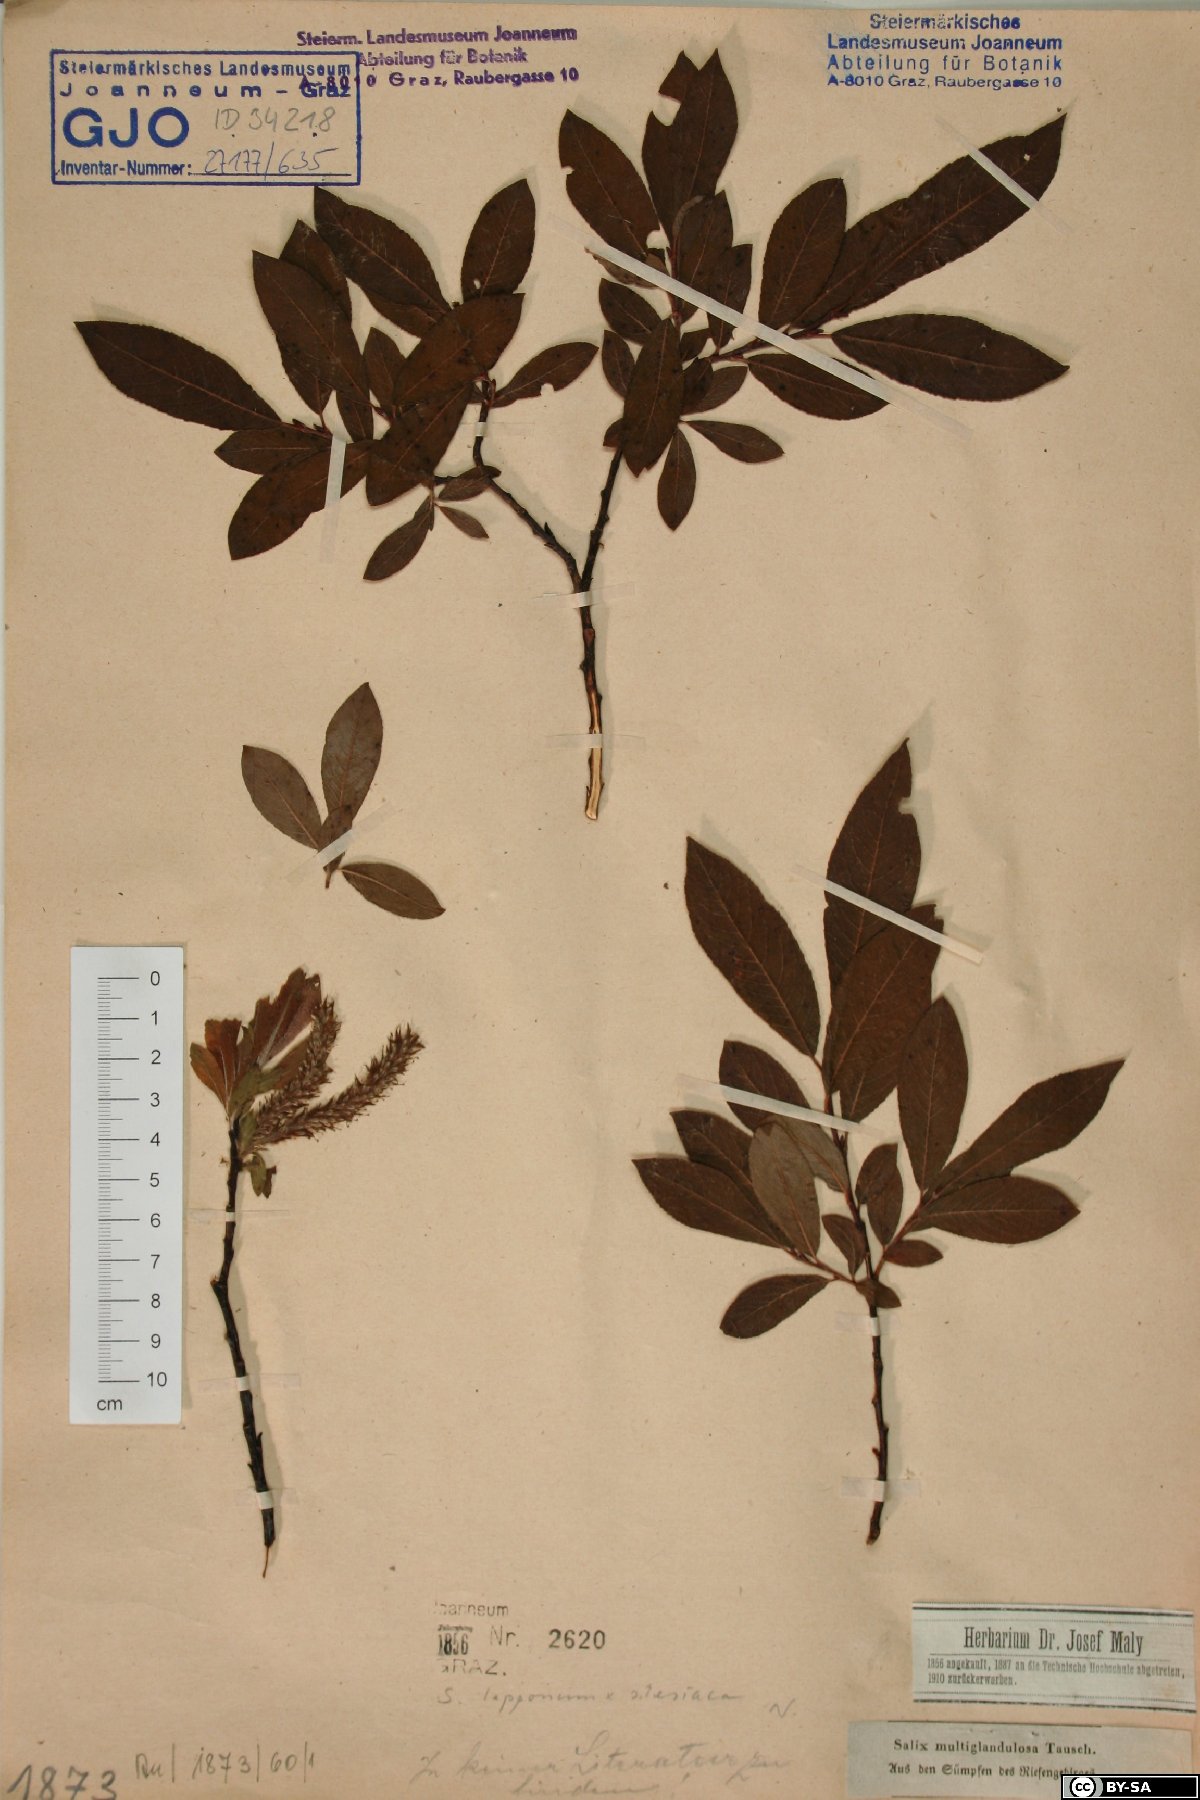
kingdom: Plantae
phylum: Tracheophyta
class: Magnoliopsida
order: Malpighiales
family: Salicaceae
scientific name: Salicaceae
